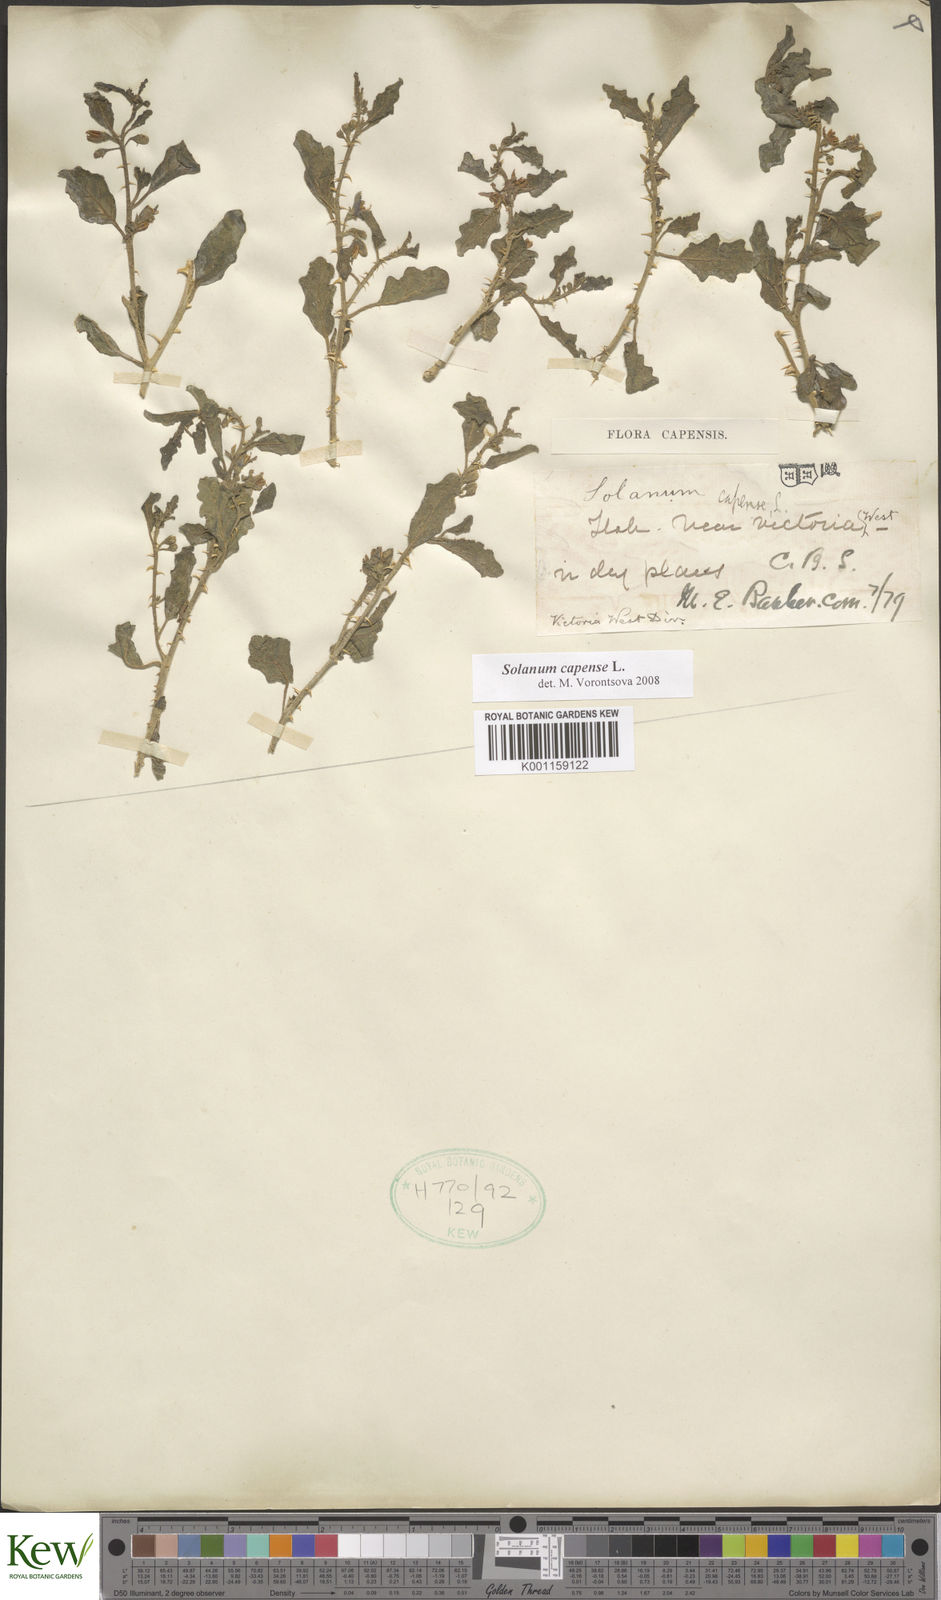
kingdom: Plantae
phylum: Tracheophyta
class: Magnoliopsida
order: Solanales
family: Solanaceae
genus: Solanum
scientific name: Solanum capense
